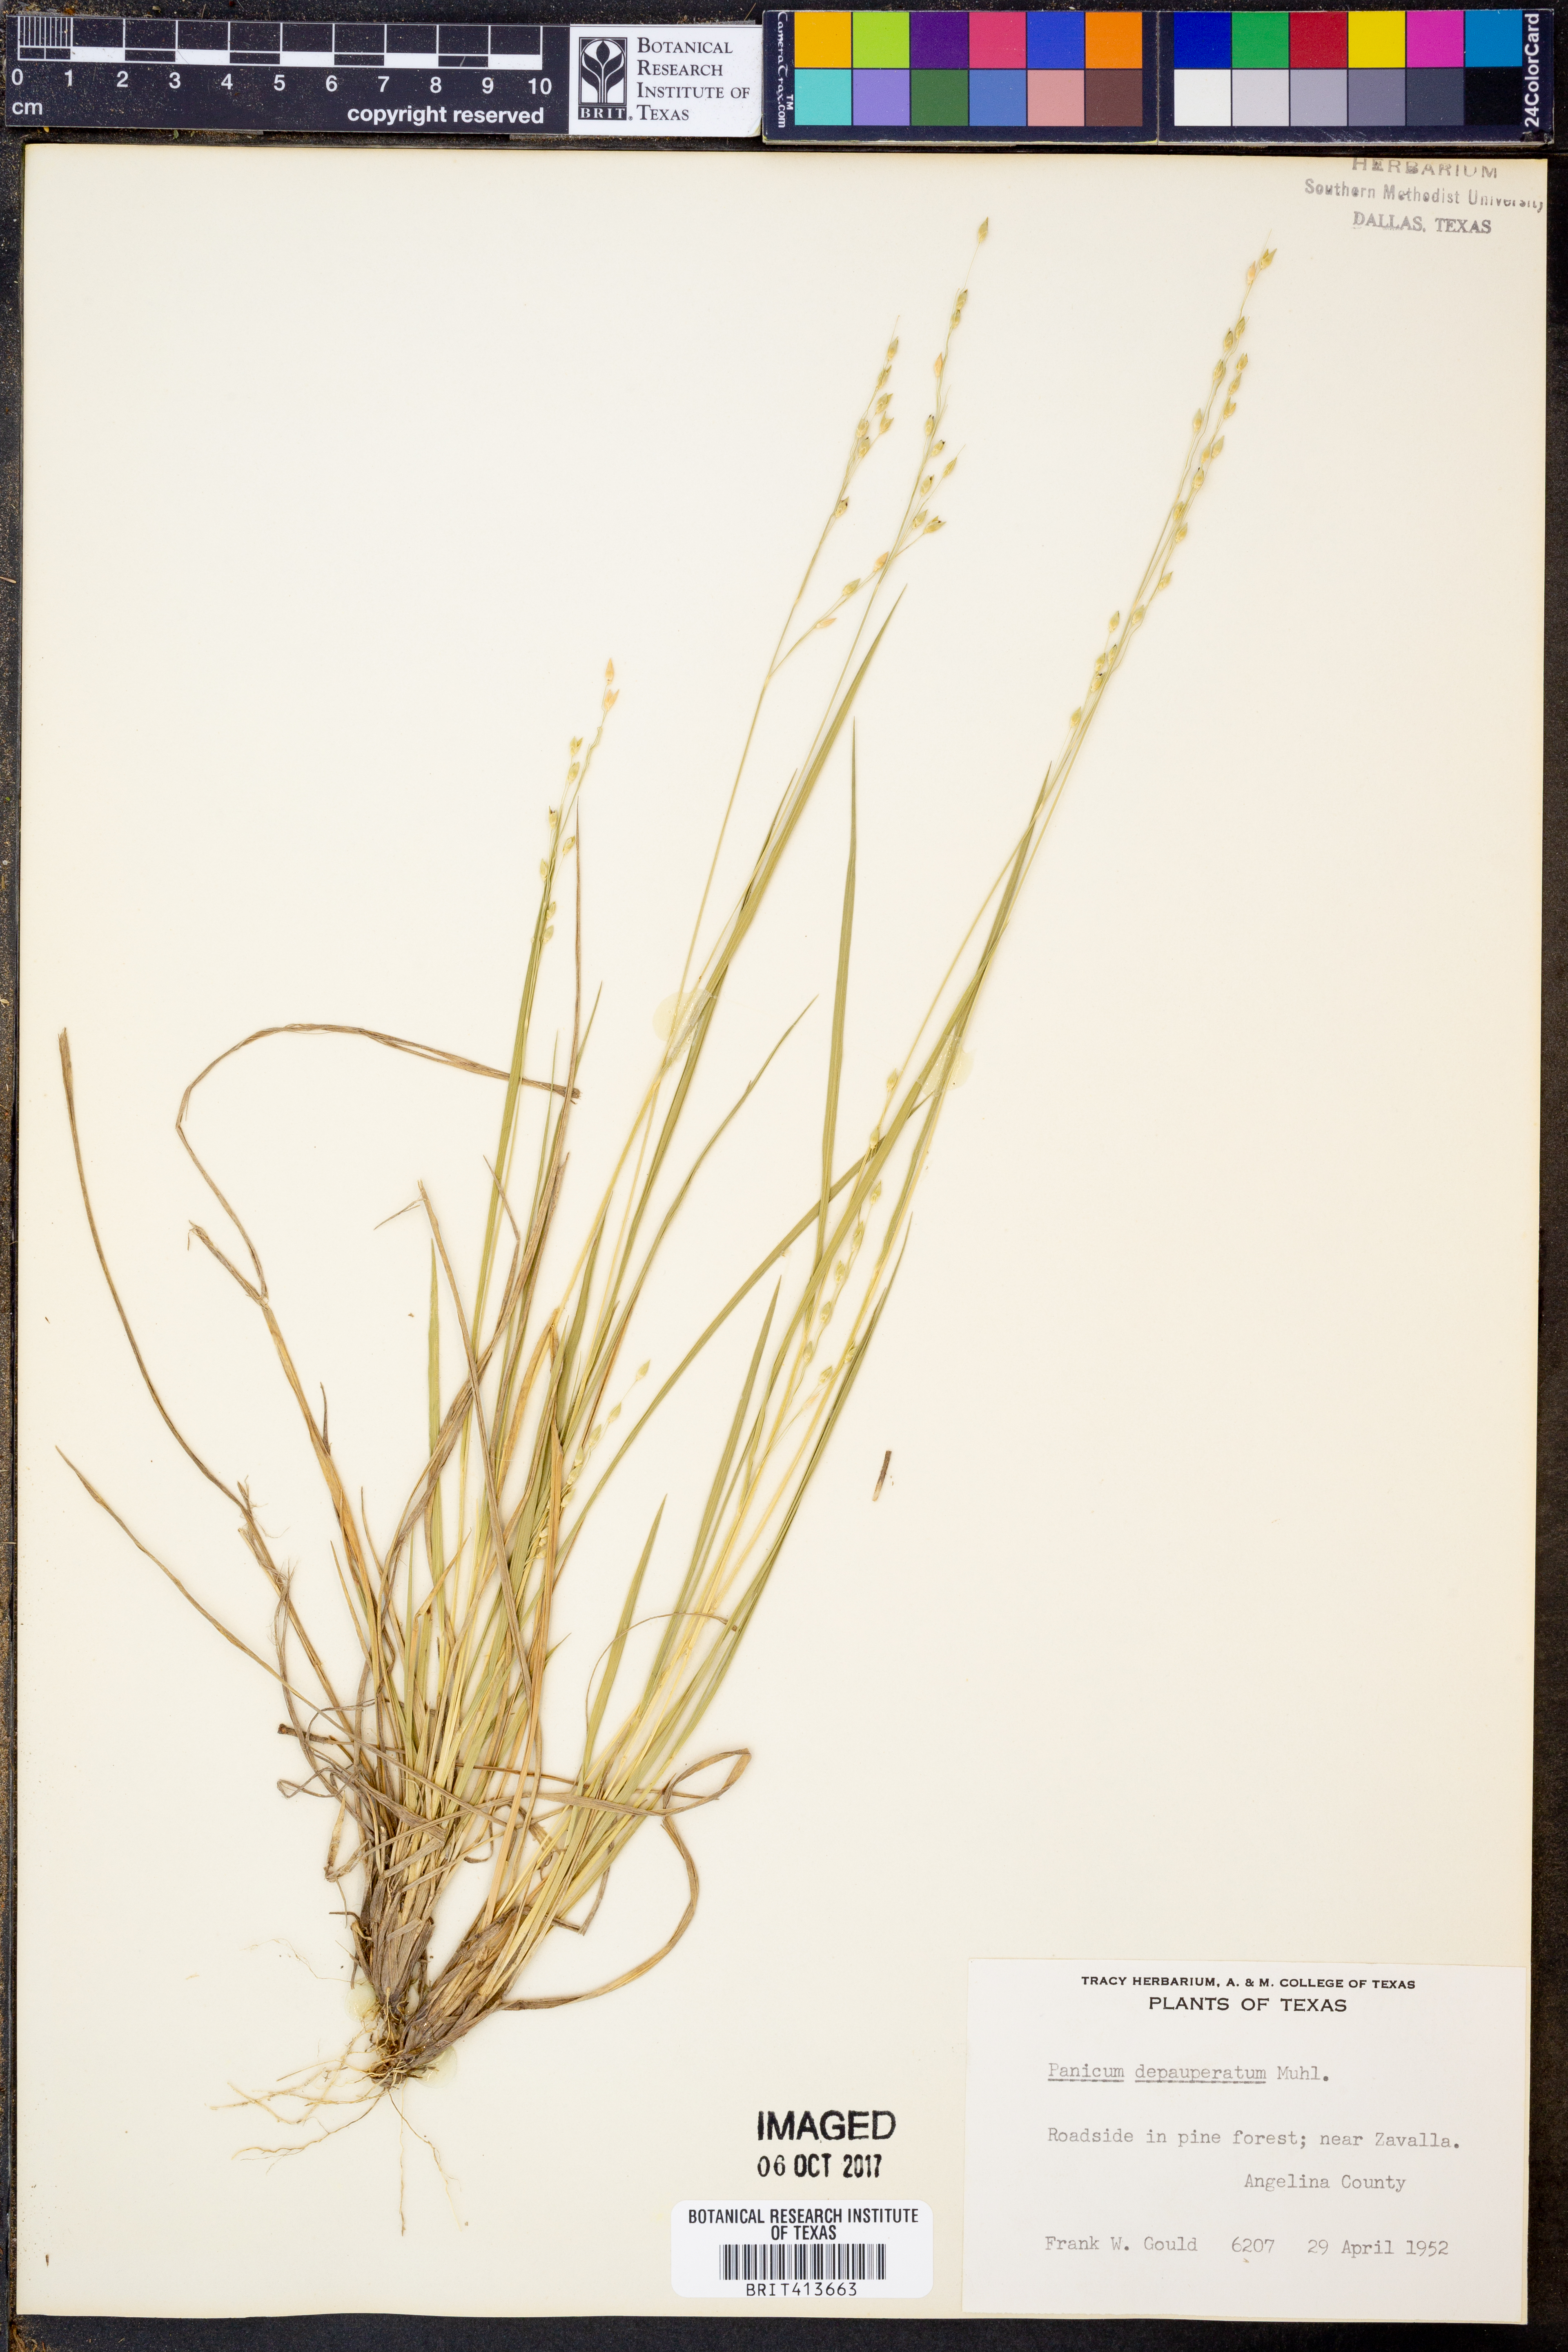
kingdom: Plantae
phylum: Tracheophyta
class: Liliopsida
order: Poales
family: Poaceae
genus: Dichanthelium
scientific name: Dichanthelium depauperatum
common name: Depauperate panicgrass
